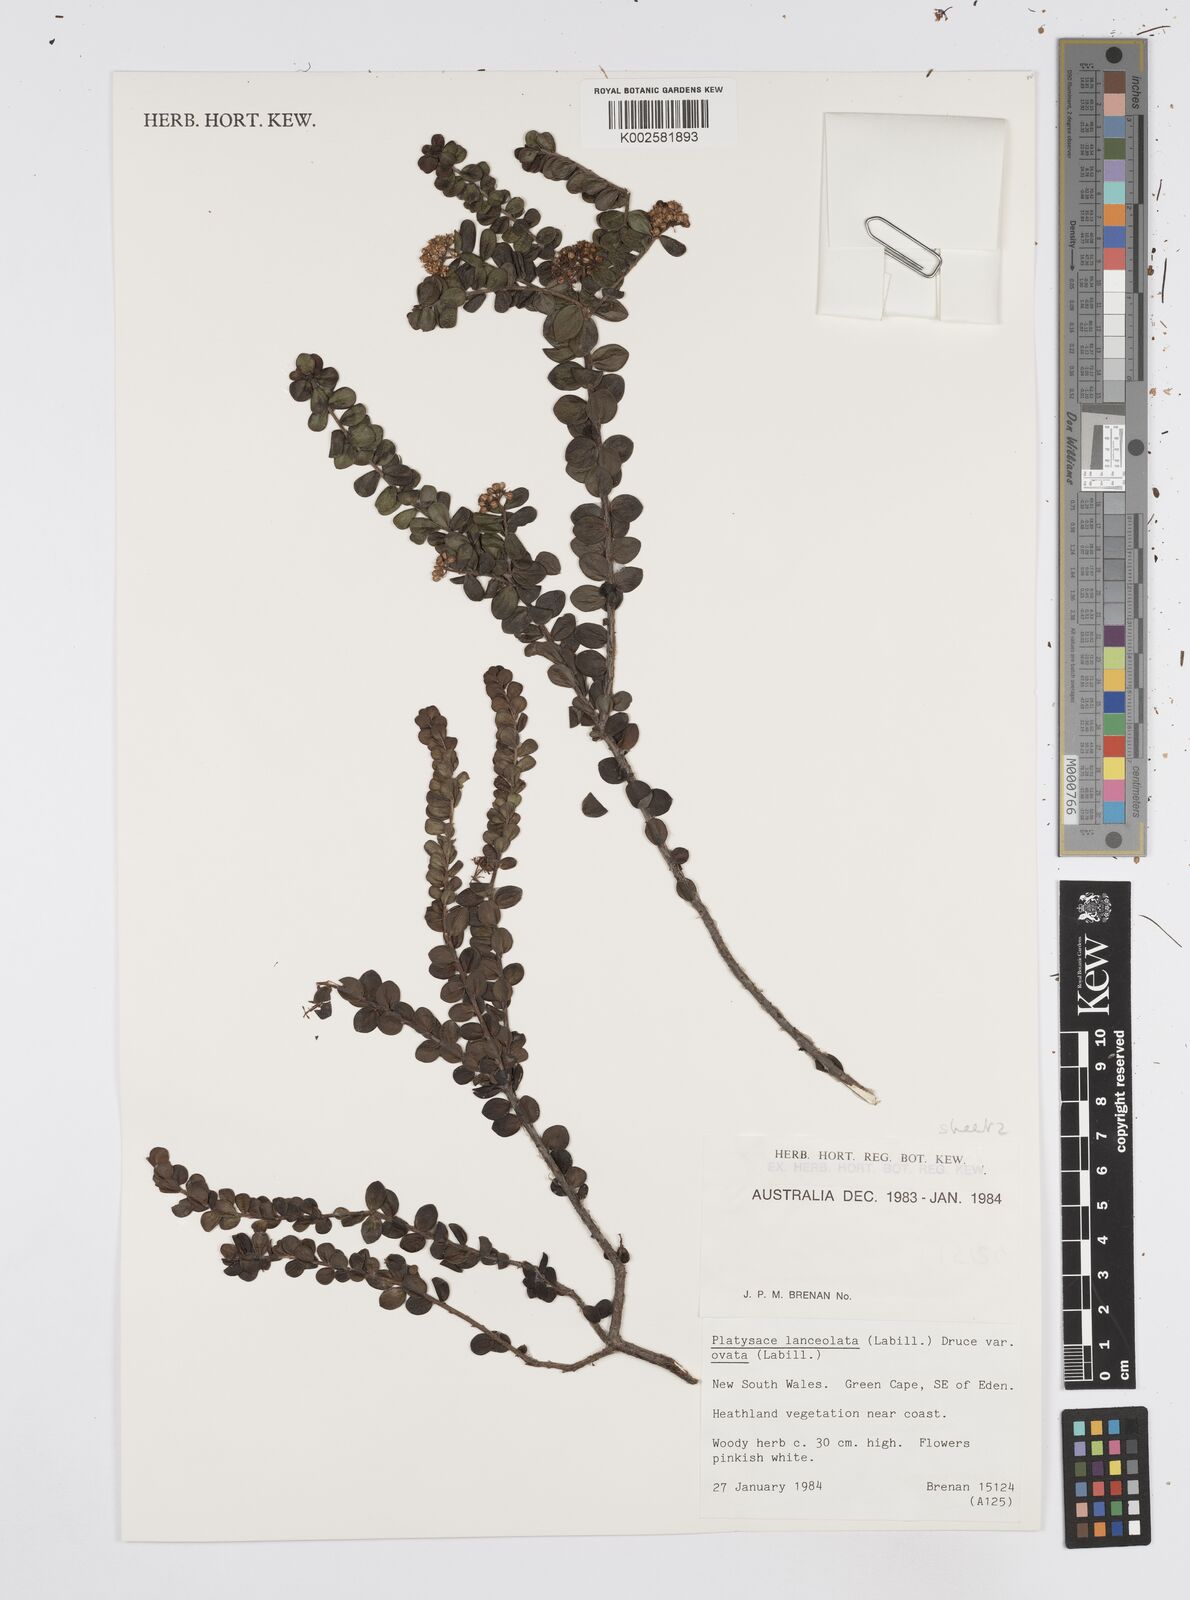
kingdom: Plantae
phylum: Tracheophyta
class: Magnoliopsida
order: Apiales
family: Apiaceae
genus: Platysace
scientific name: Platysace lanceolata
